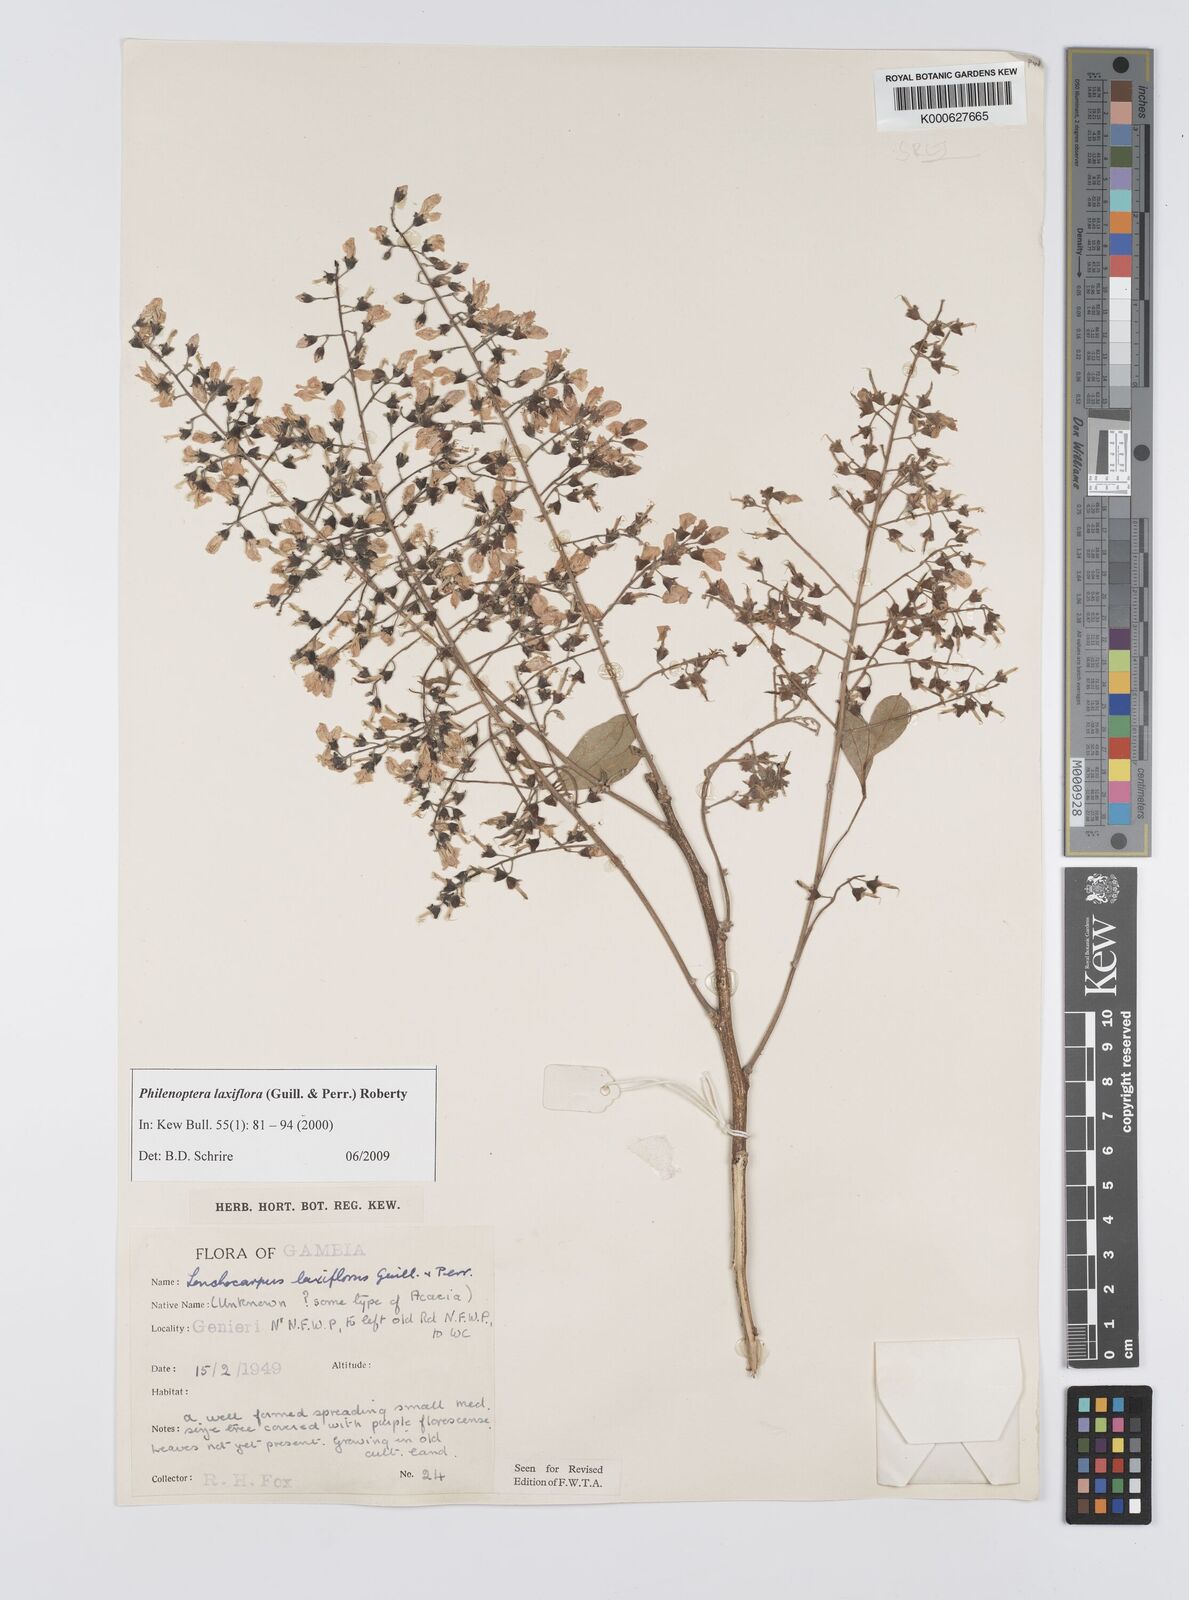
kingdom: Plantae
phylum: Tracheophyta
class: Magnoliopsida
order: Fabales
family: Fabaceae
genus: Philenoptera
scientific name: Philenoptera laxiflora
